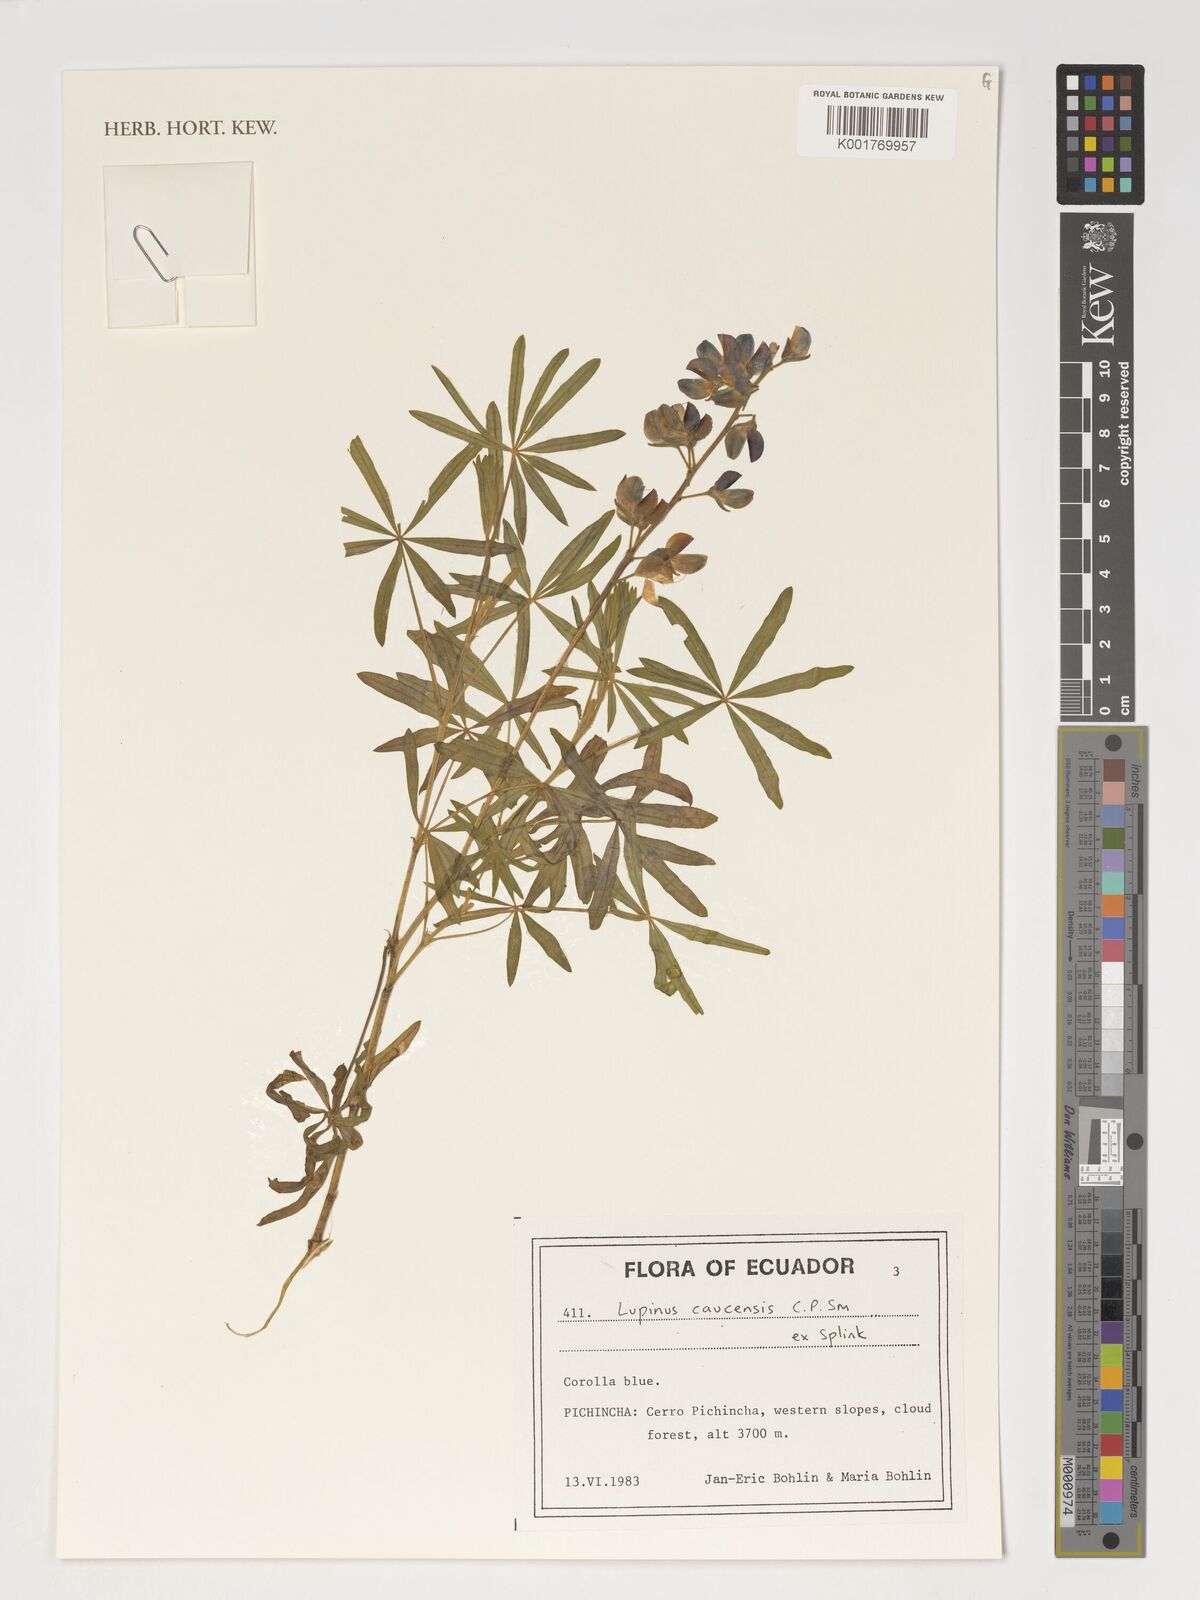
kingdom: Plantae
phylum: Tracheophyta
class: Magnoliopsida
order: Fabales
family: Fabaceae
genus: Lupinus
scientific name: Lupinus caucensis
